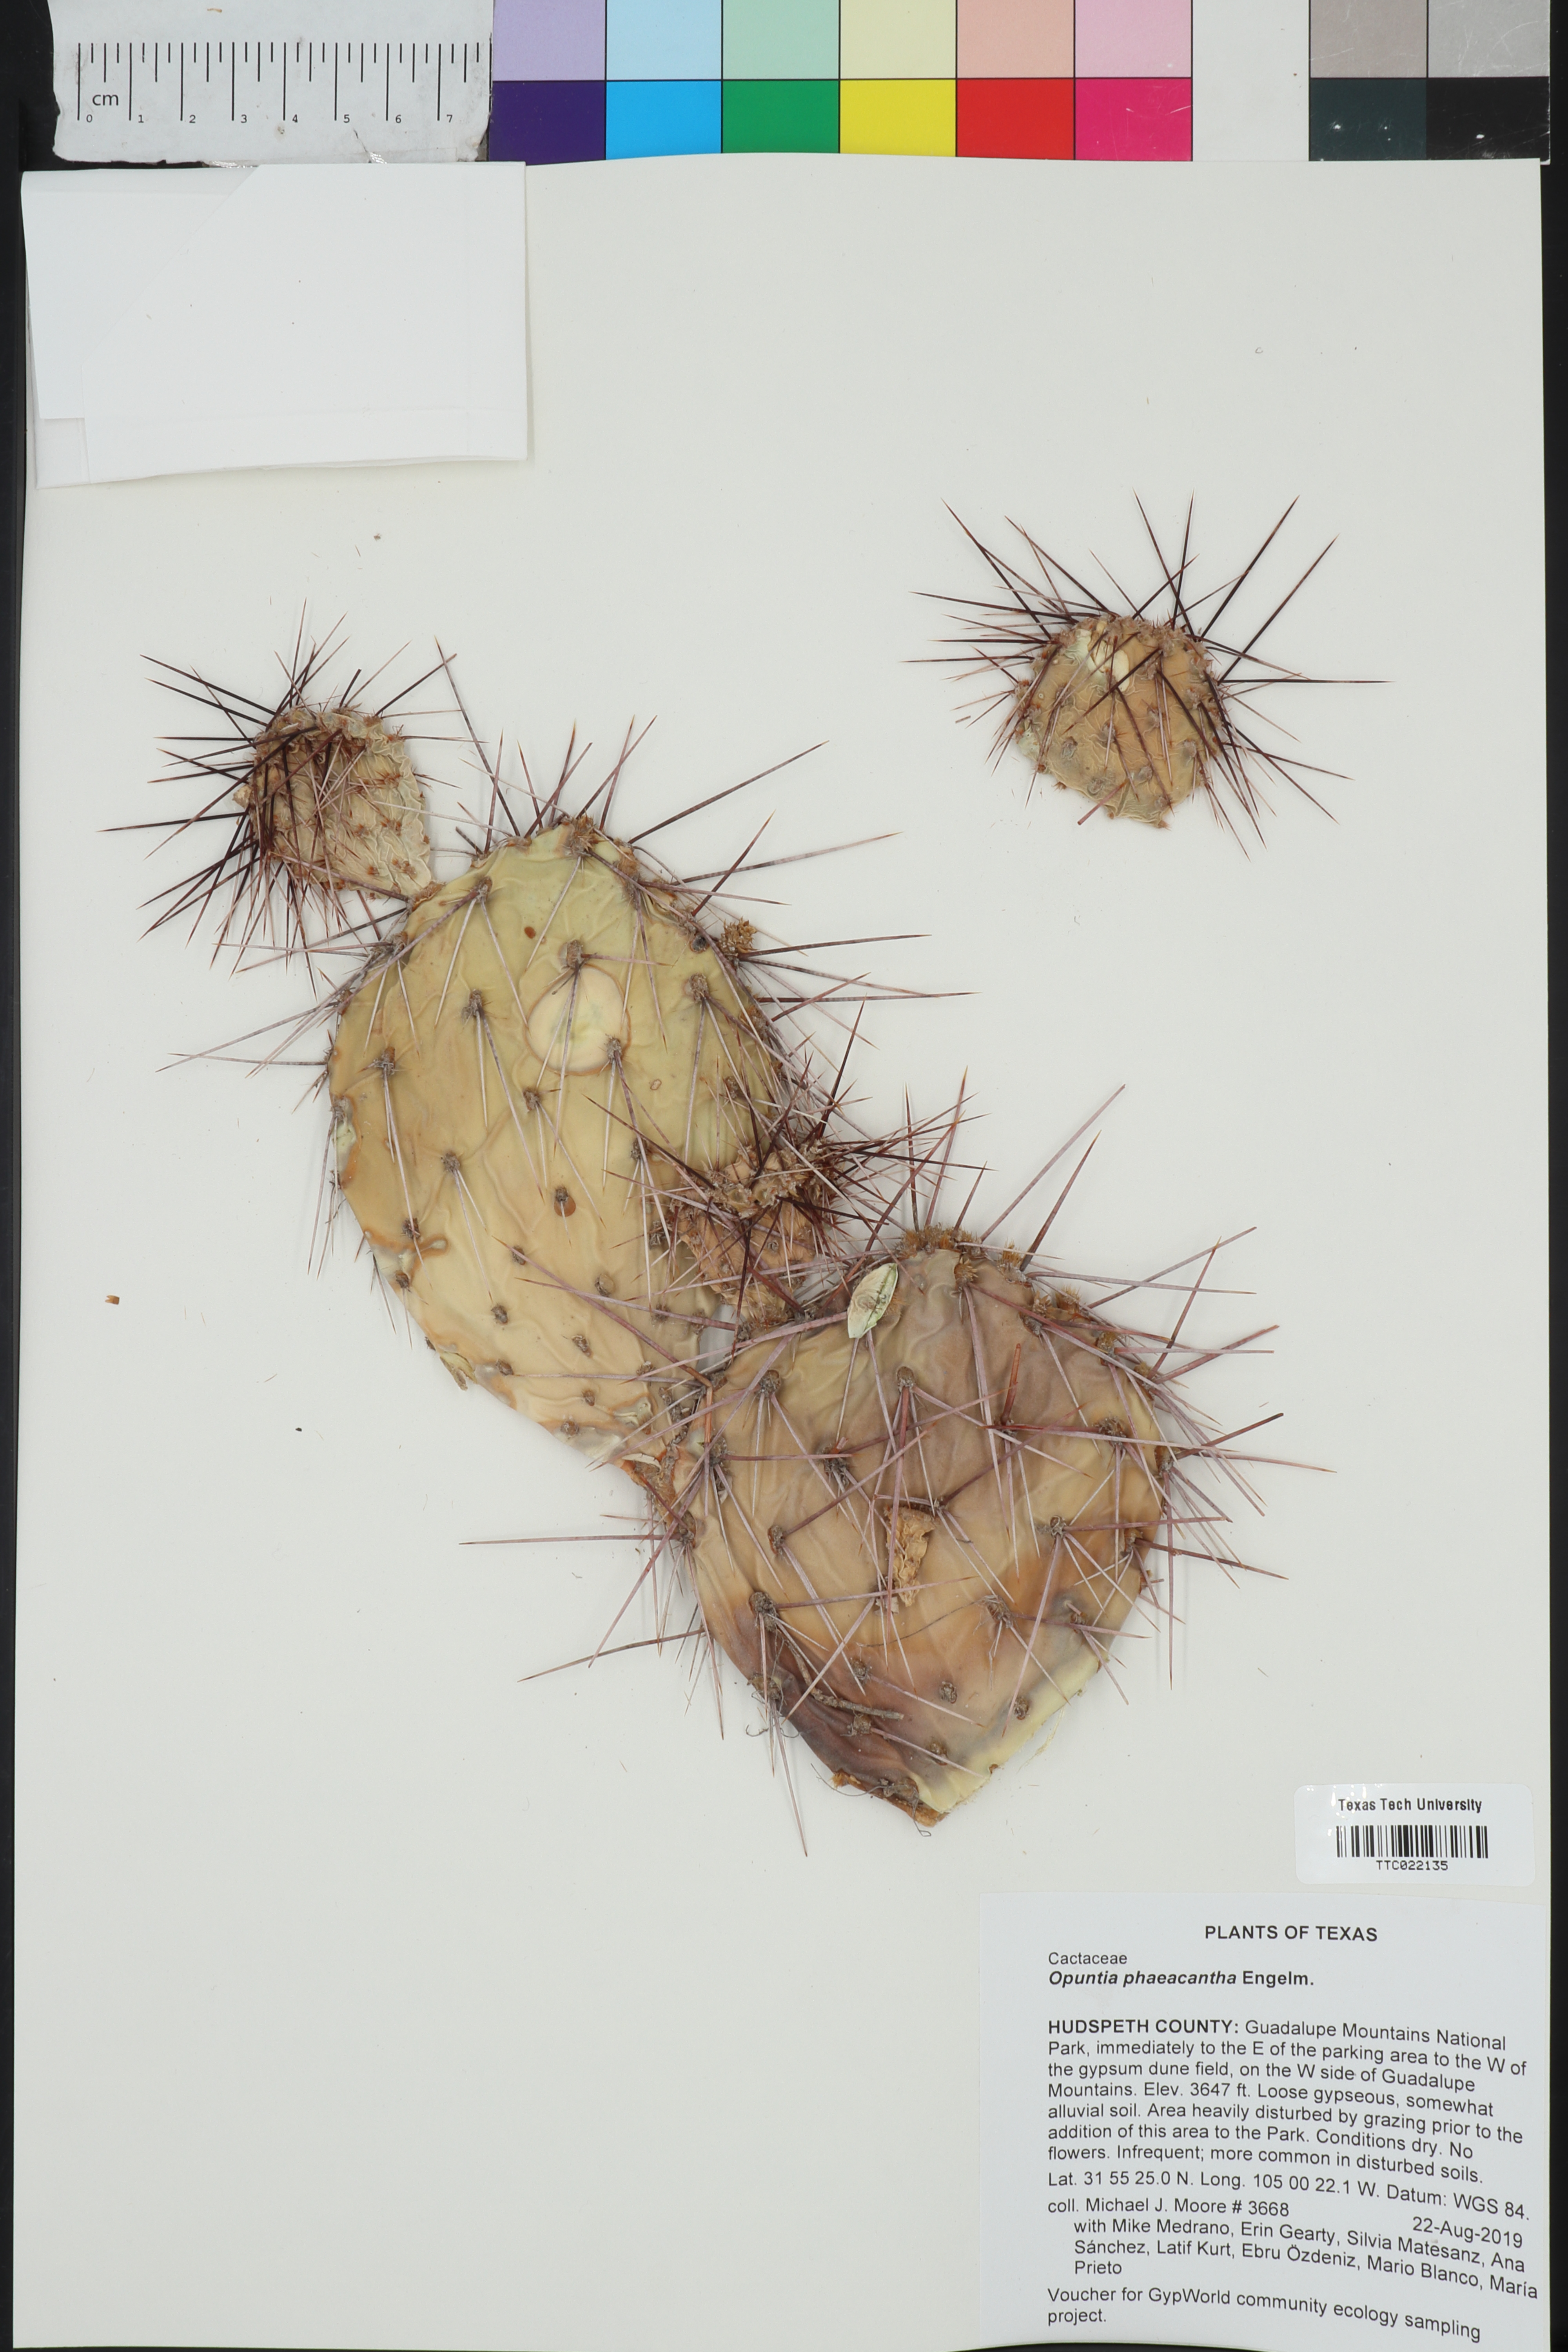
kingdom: Plantae
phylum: Tracheophyta
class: Magnoliopsida
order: Caryophyllales
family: Cactaceae
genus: Opuntia
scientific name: Opuntia phaeacantha
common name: New mexico prickly-pear
